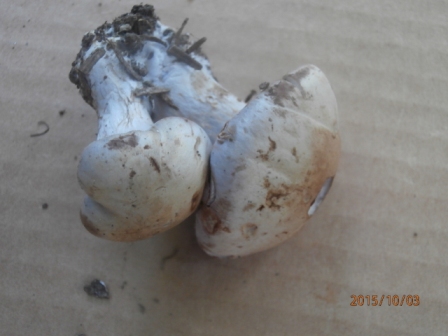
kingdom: Fungi
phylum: Basidiomycota
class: Agaricomycetes
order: Agaricales
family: Cortinariaceae
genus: Phlegmacium
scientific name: Phlegmacium eliae
